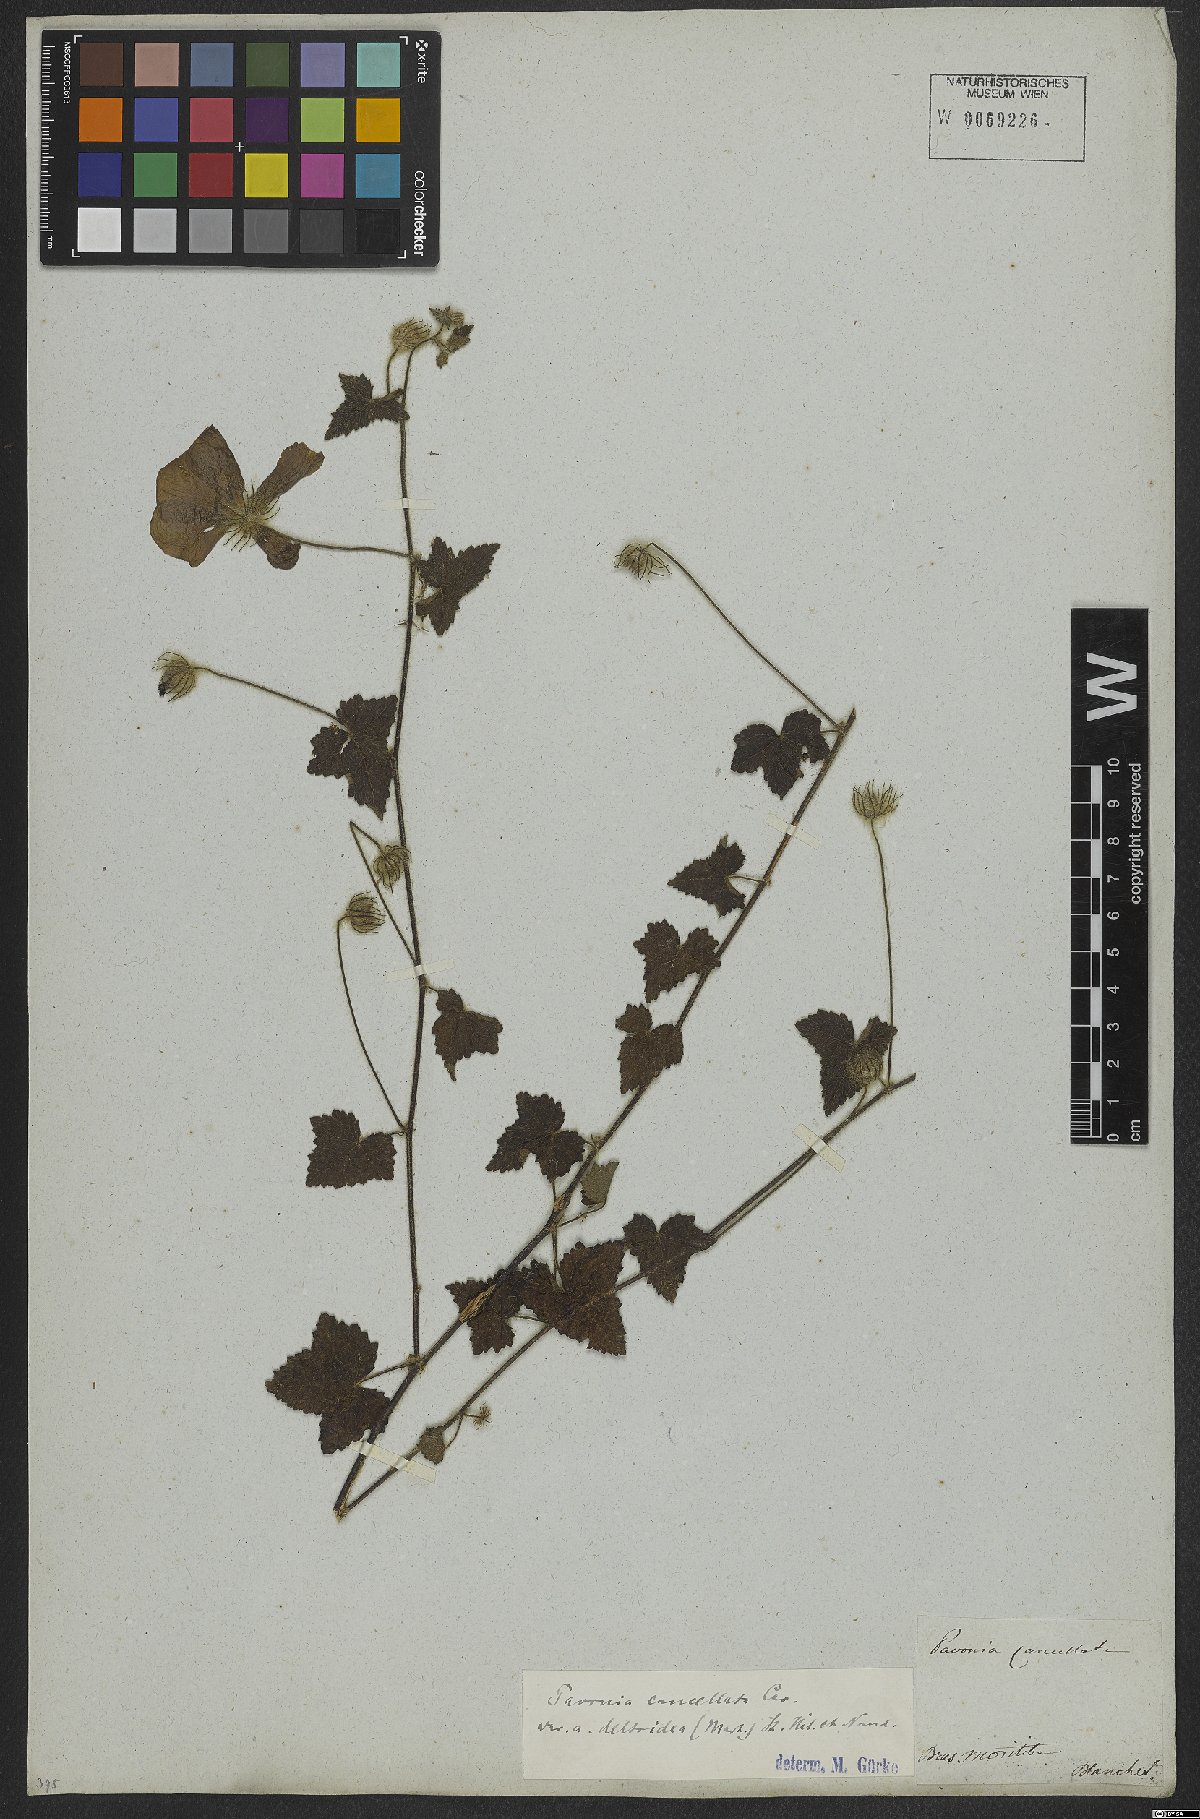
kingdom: Plantae
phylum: Tracheophyta
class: Magnoliopsida
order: Malvales
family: Malvaceae
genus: Pavonia
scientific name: Pavonia cancellata
